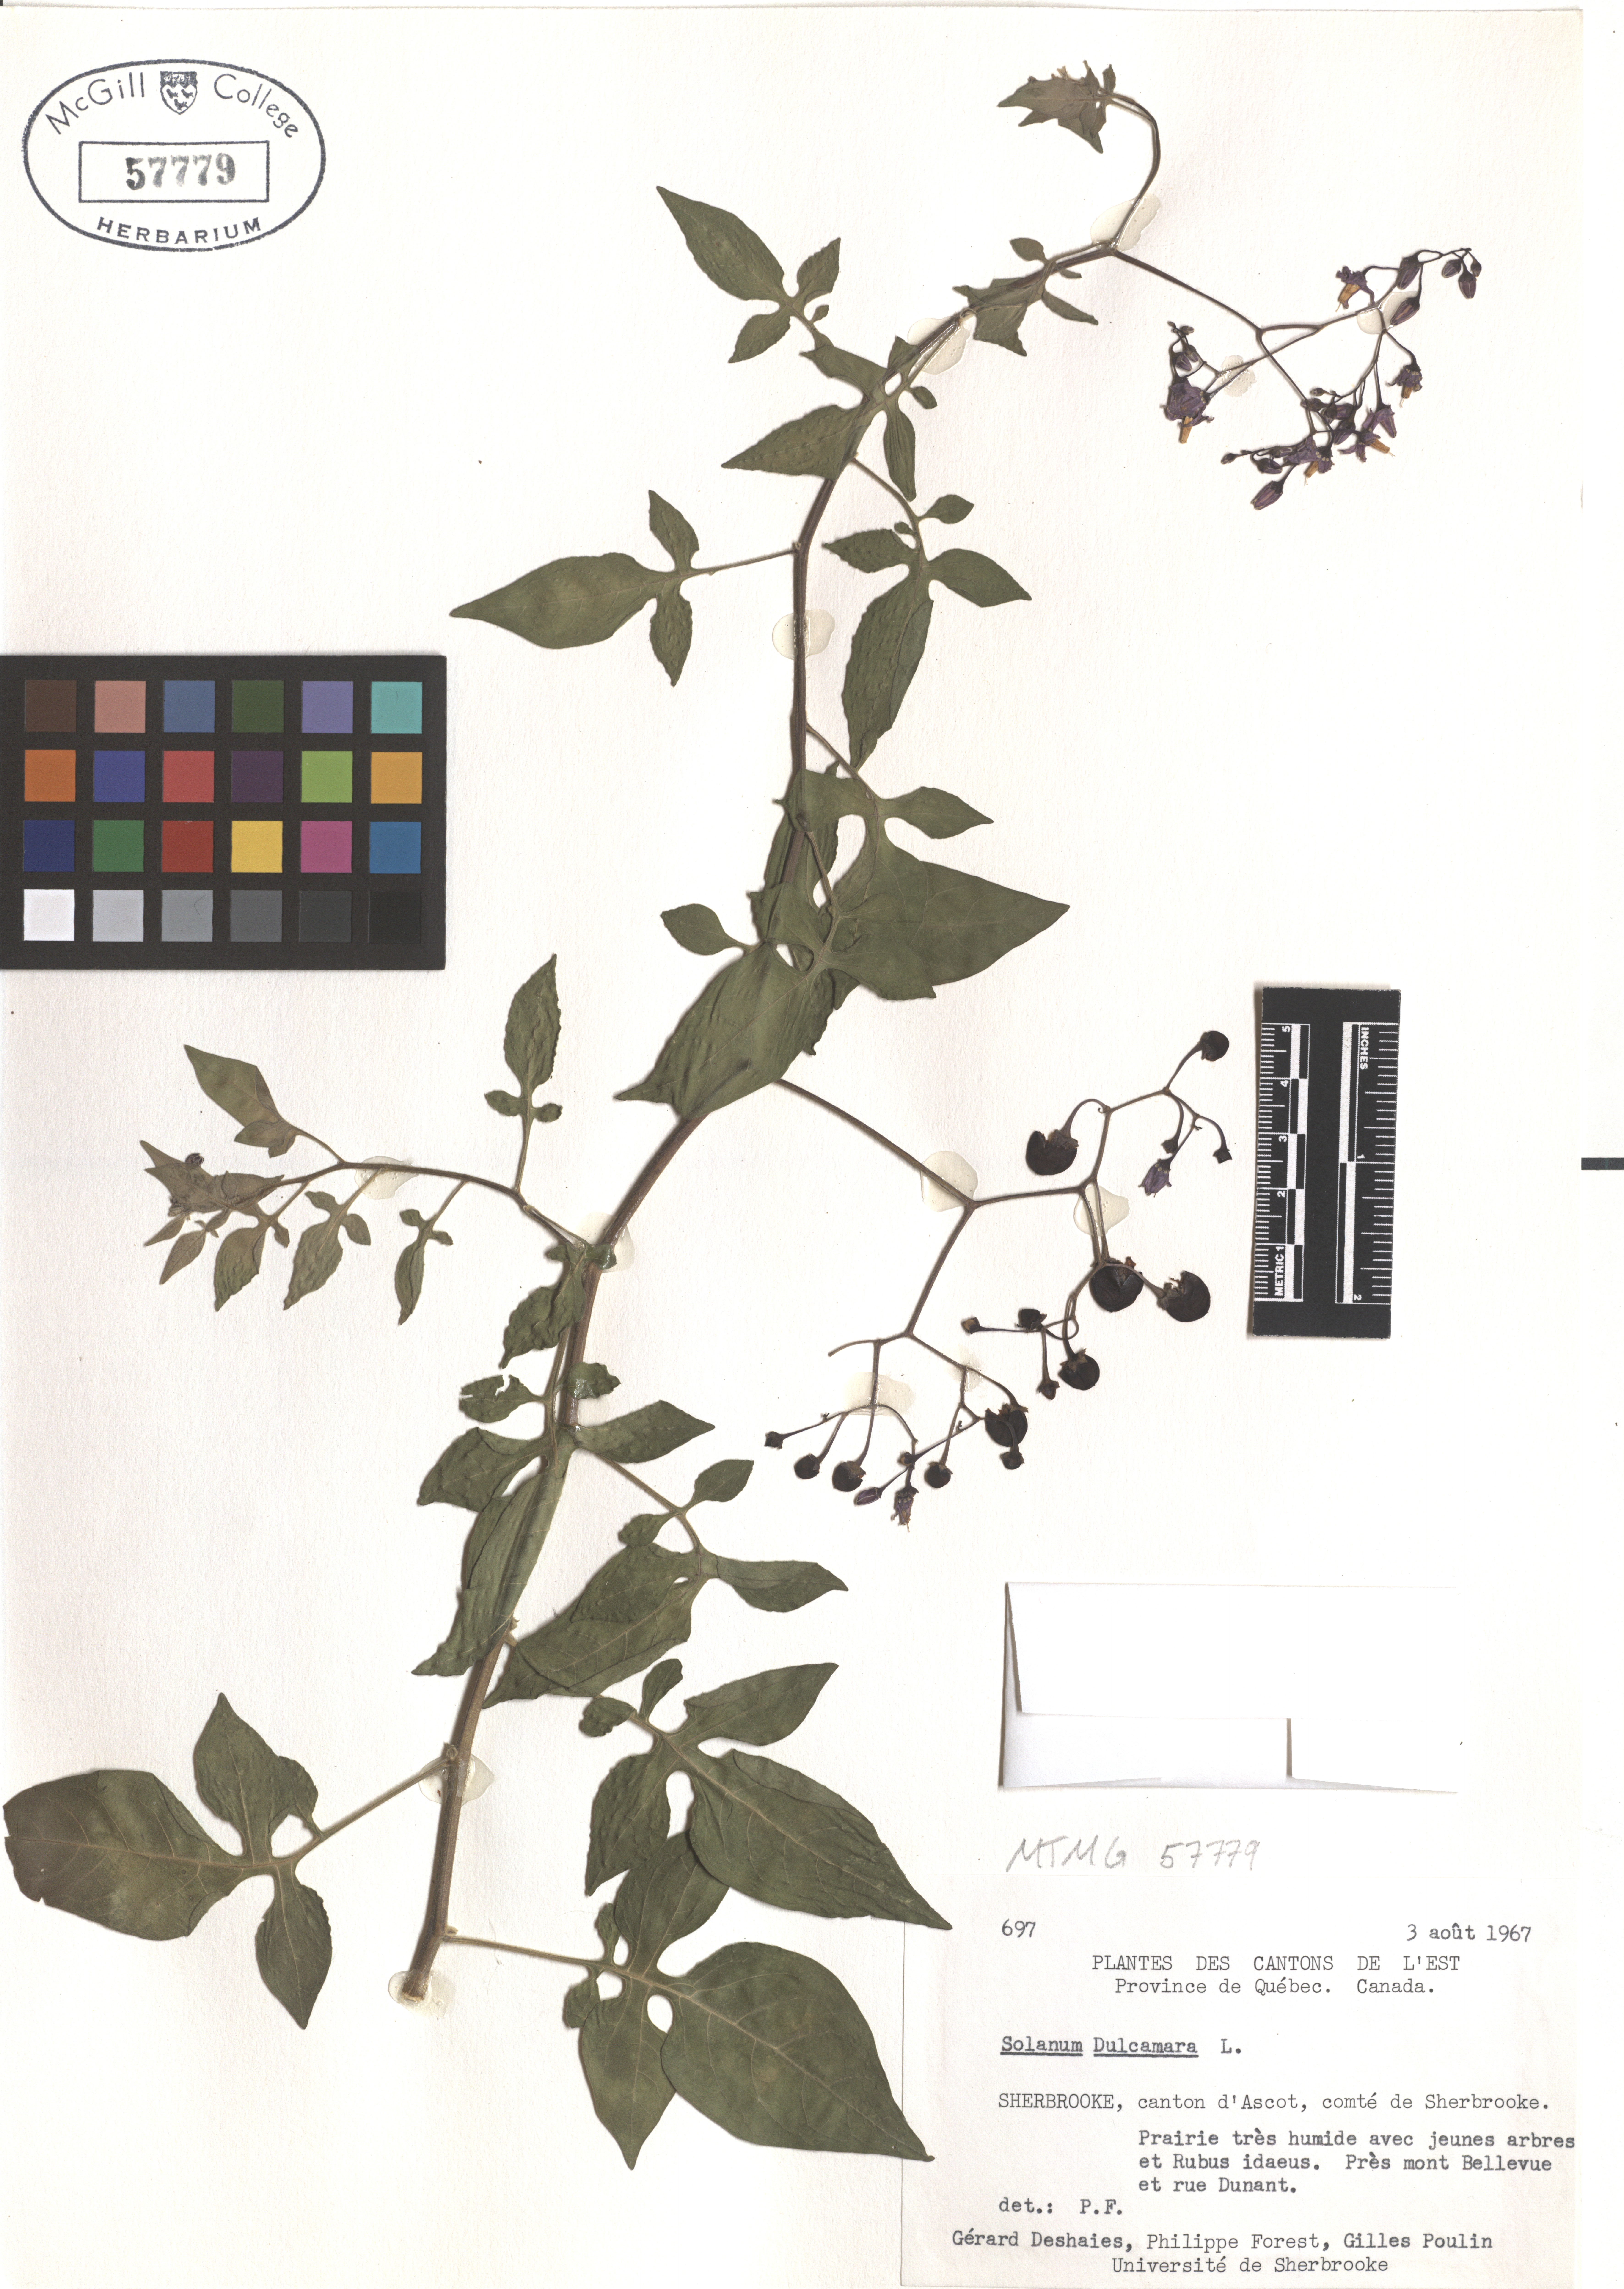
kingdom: Plantae
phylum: Tracheophyta
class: Magnoliopsida
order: Solanales
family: Solanaceae
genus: Solanum
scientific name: Solanum dulcamara
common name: Climbing nightshade
